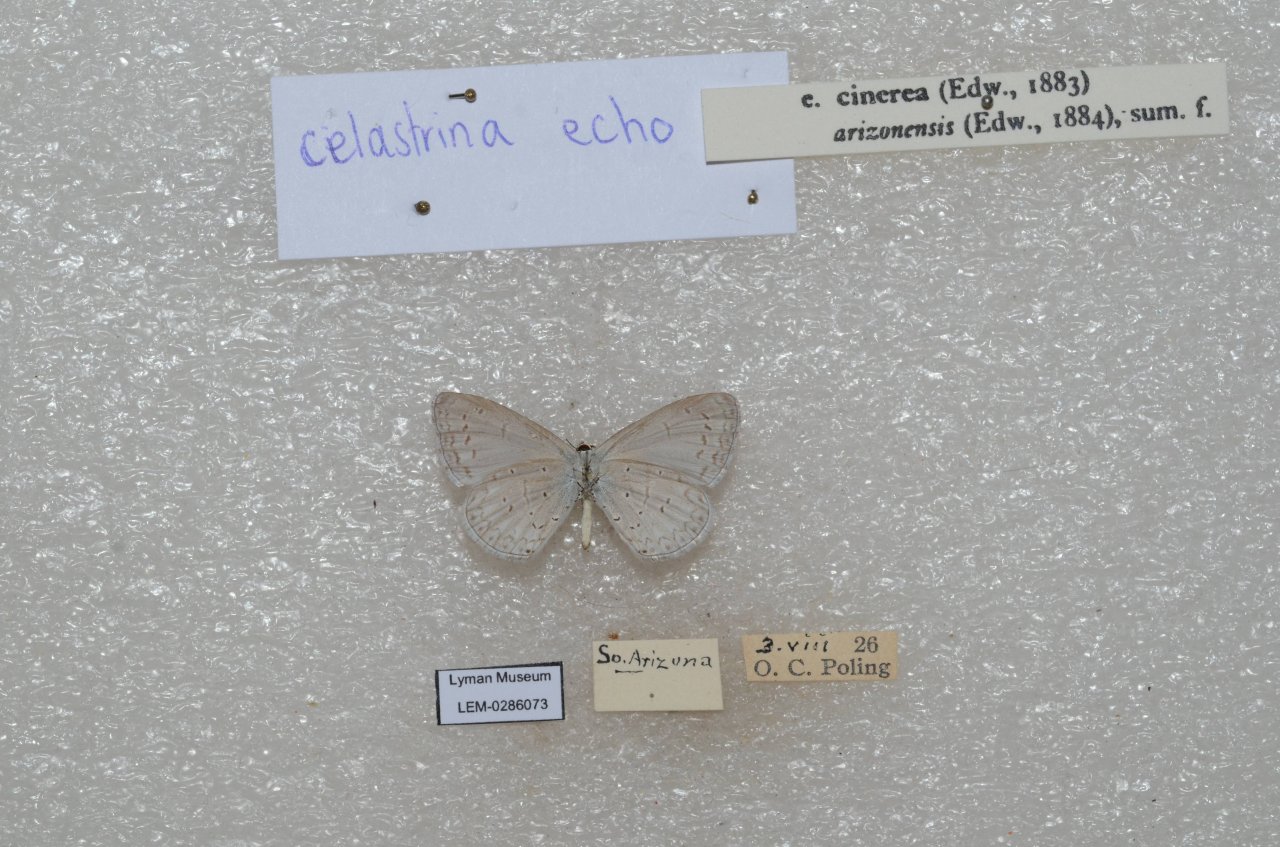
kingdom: Animalia
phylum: Arthropoda
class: Insecta
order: Lepidoptera
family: Lycaenidae
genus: Celastrina
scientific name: Celastrina ladon
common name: Echo Azure
